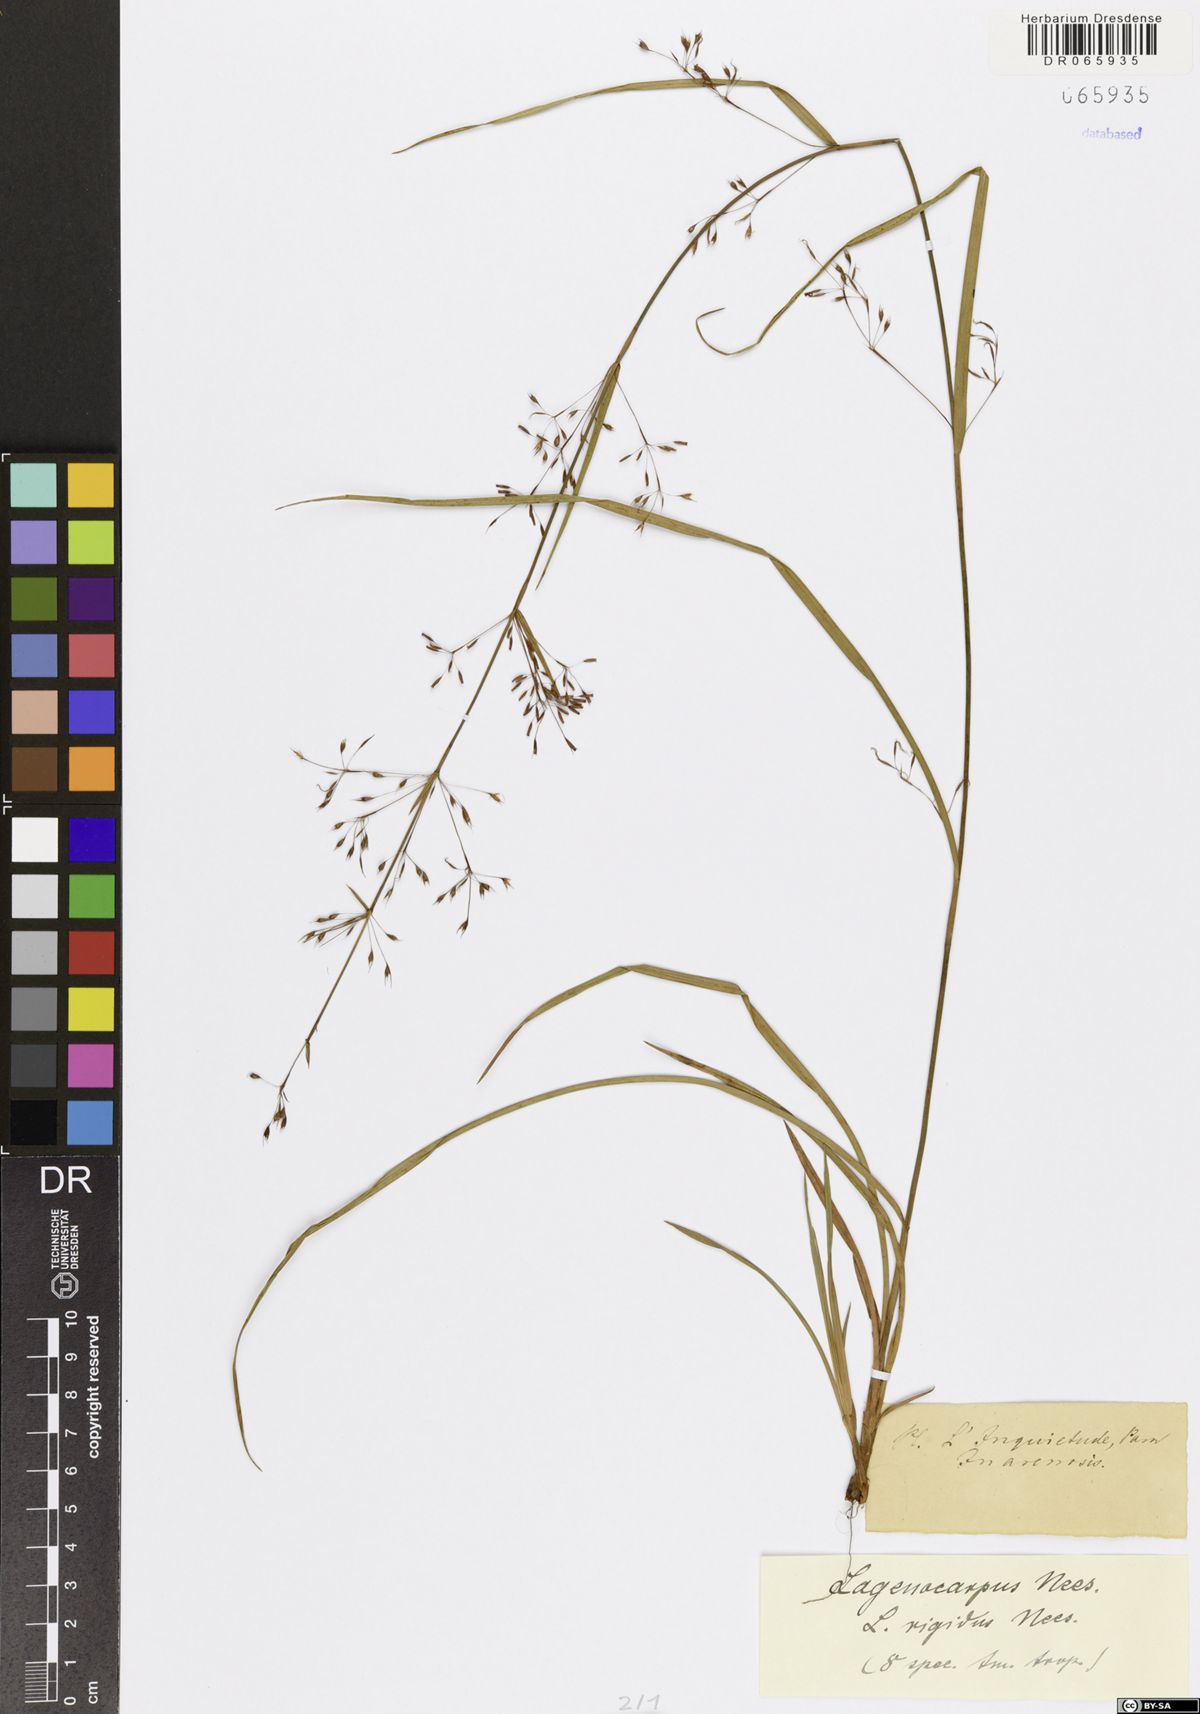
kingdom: Plantae
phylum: Tracheophyta
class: Liliopsida
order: Poales
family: Cyperaceae
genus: Lagenocarpus
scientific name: Lagenocarpus rigidus
